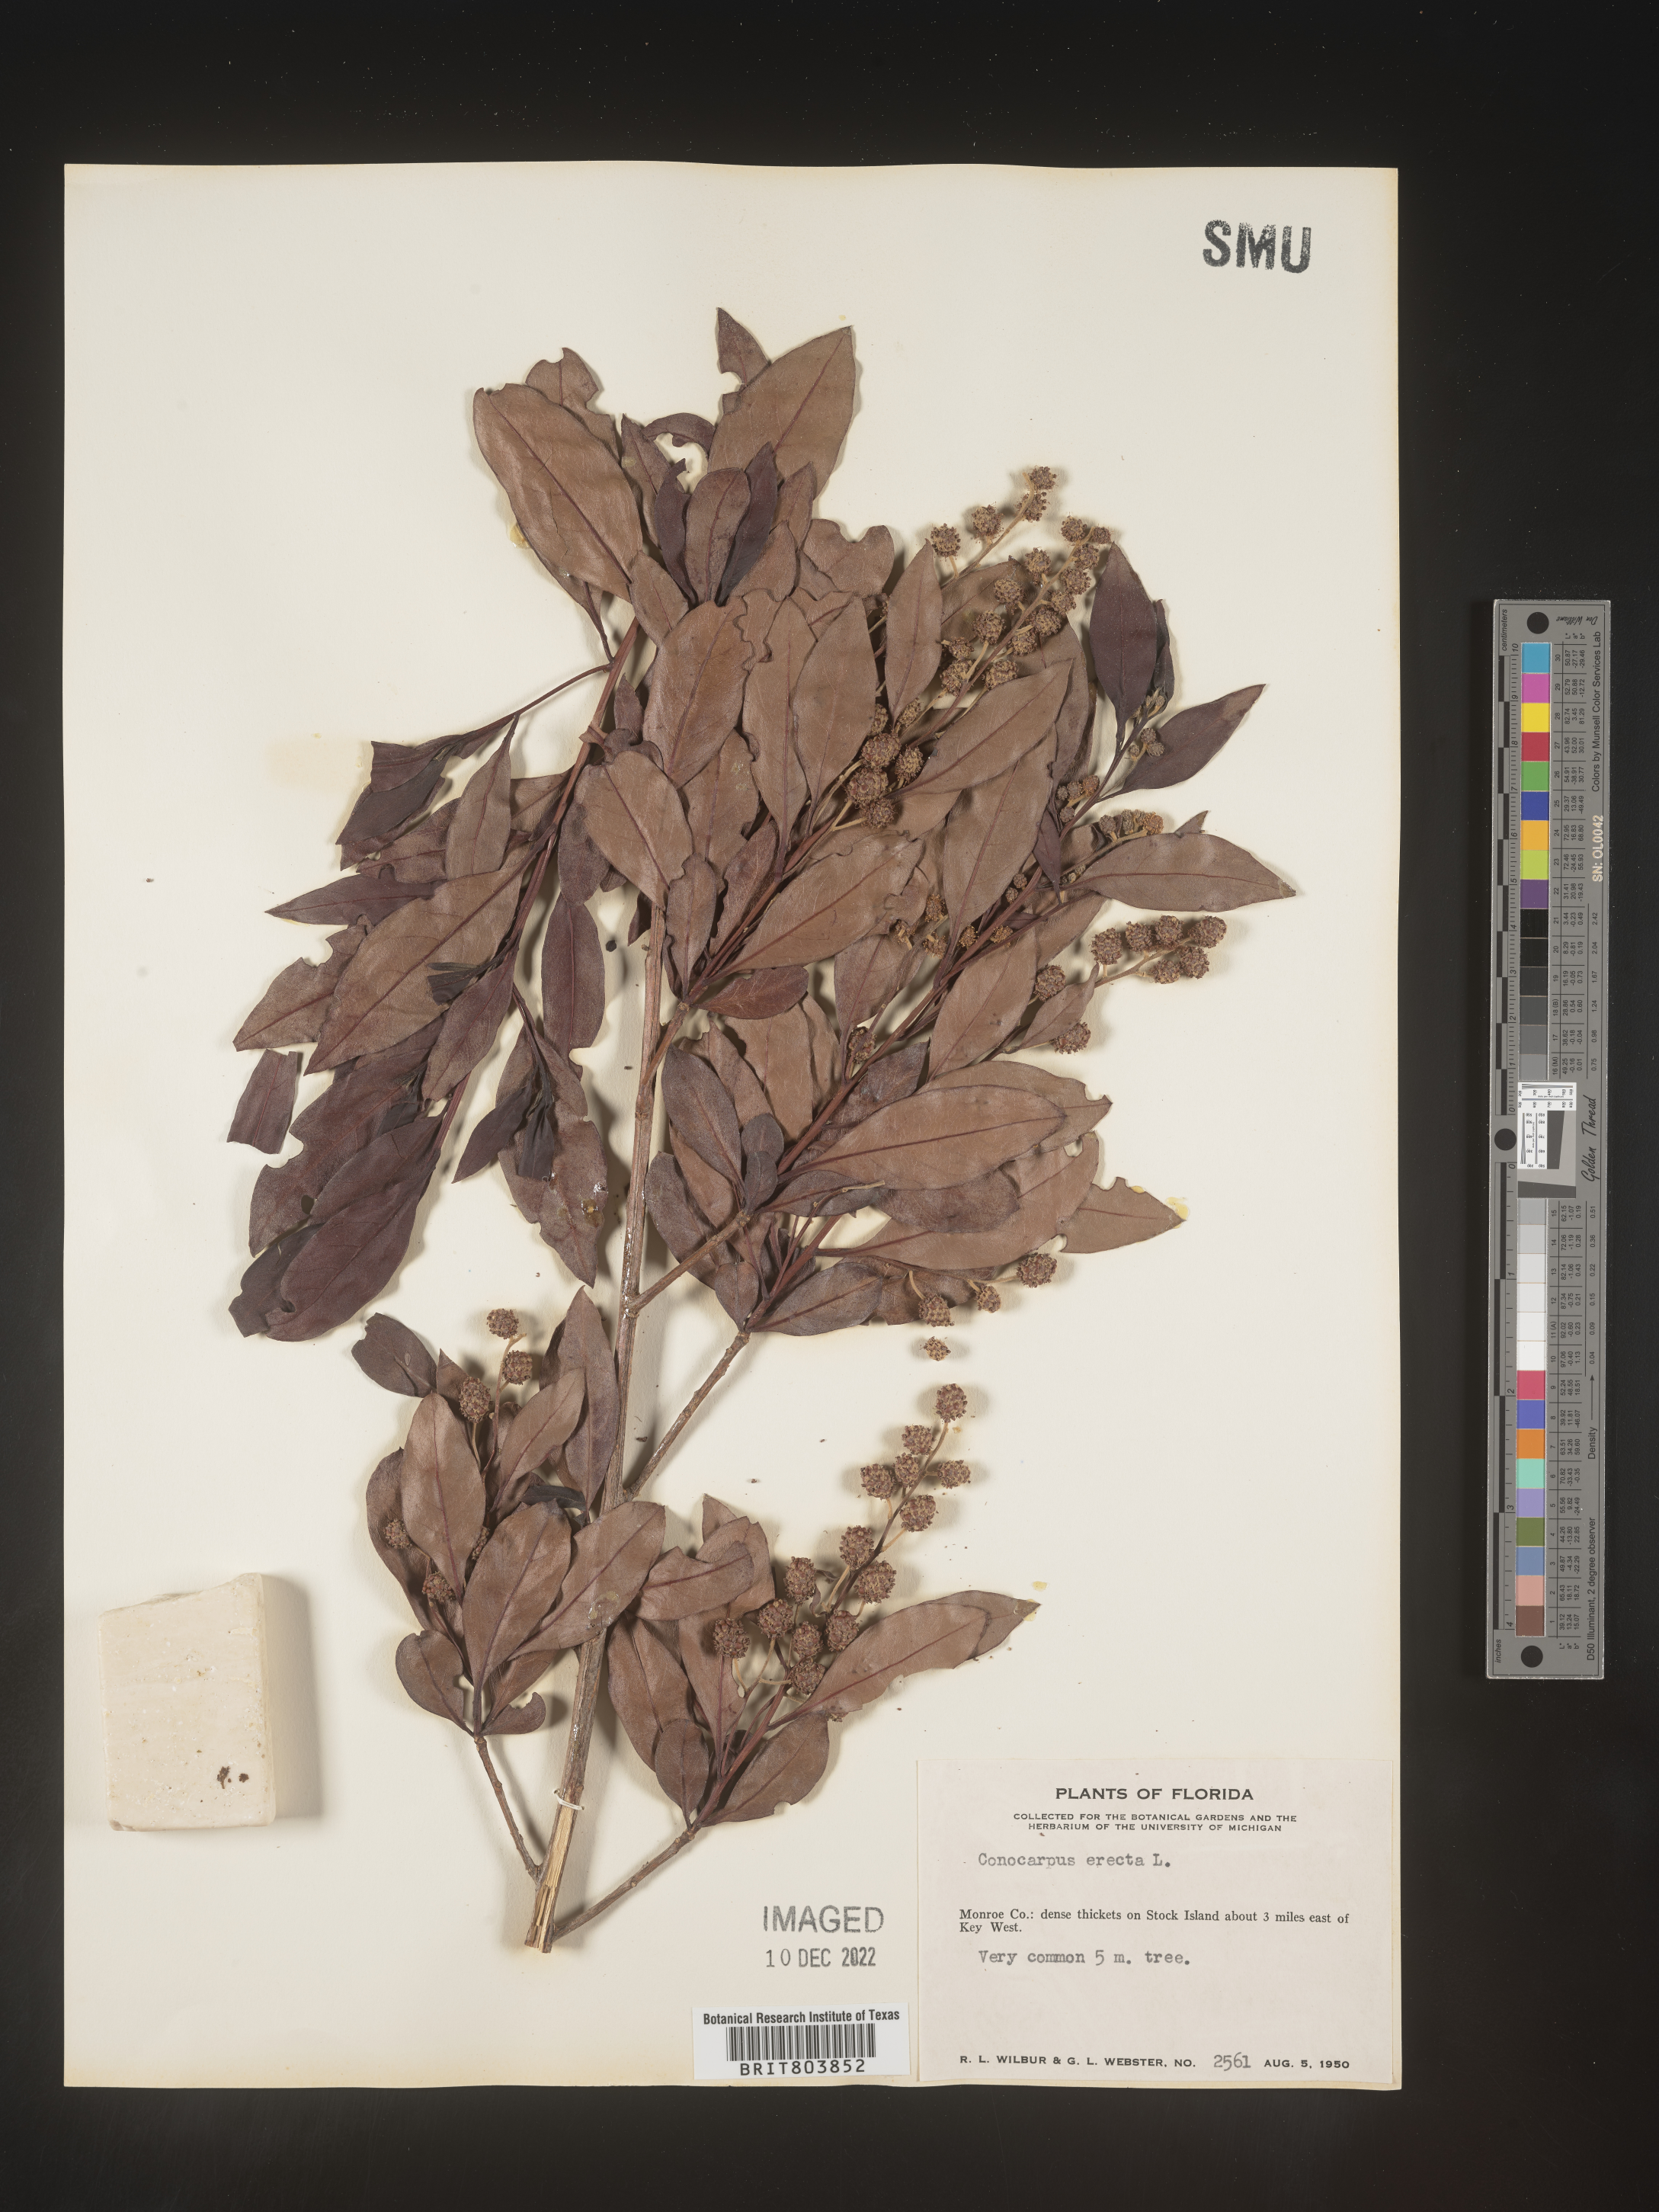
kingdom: Plantae
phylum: Tracheophyta
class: Magnoliopsida
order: Myrtales
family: Combretaceae
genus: Conocarpus
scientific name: Conocarpus erectus
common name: Button mangrove
